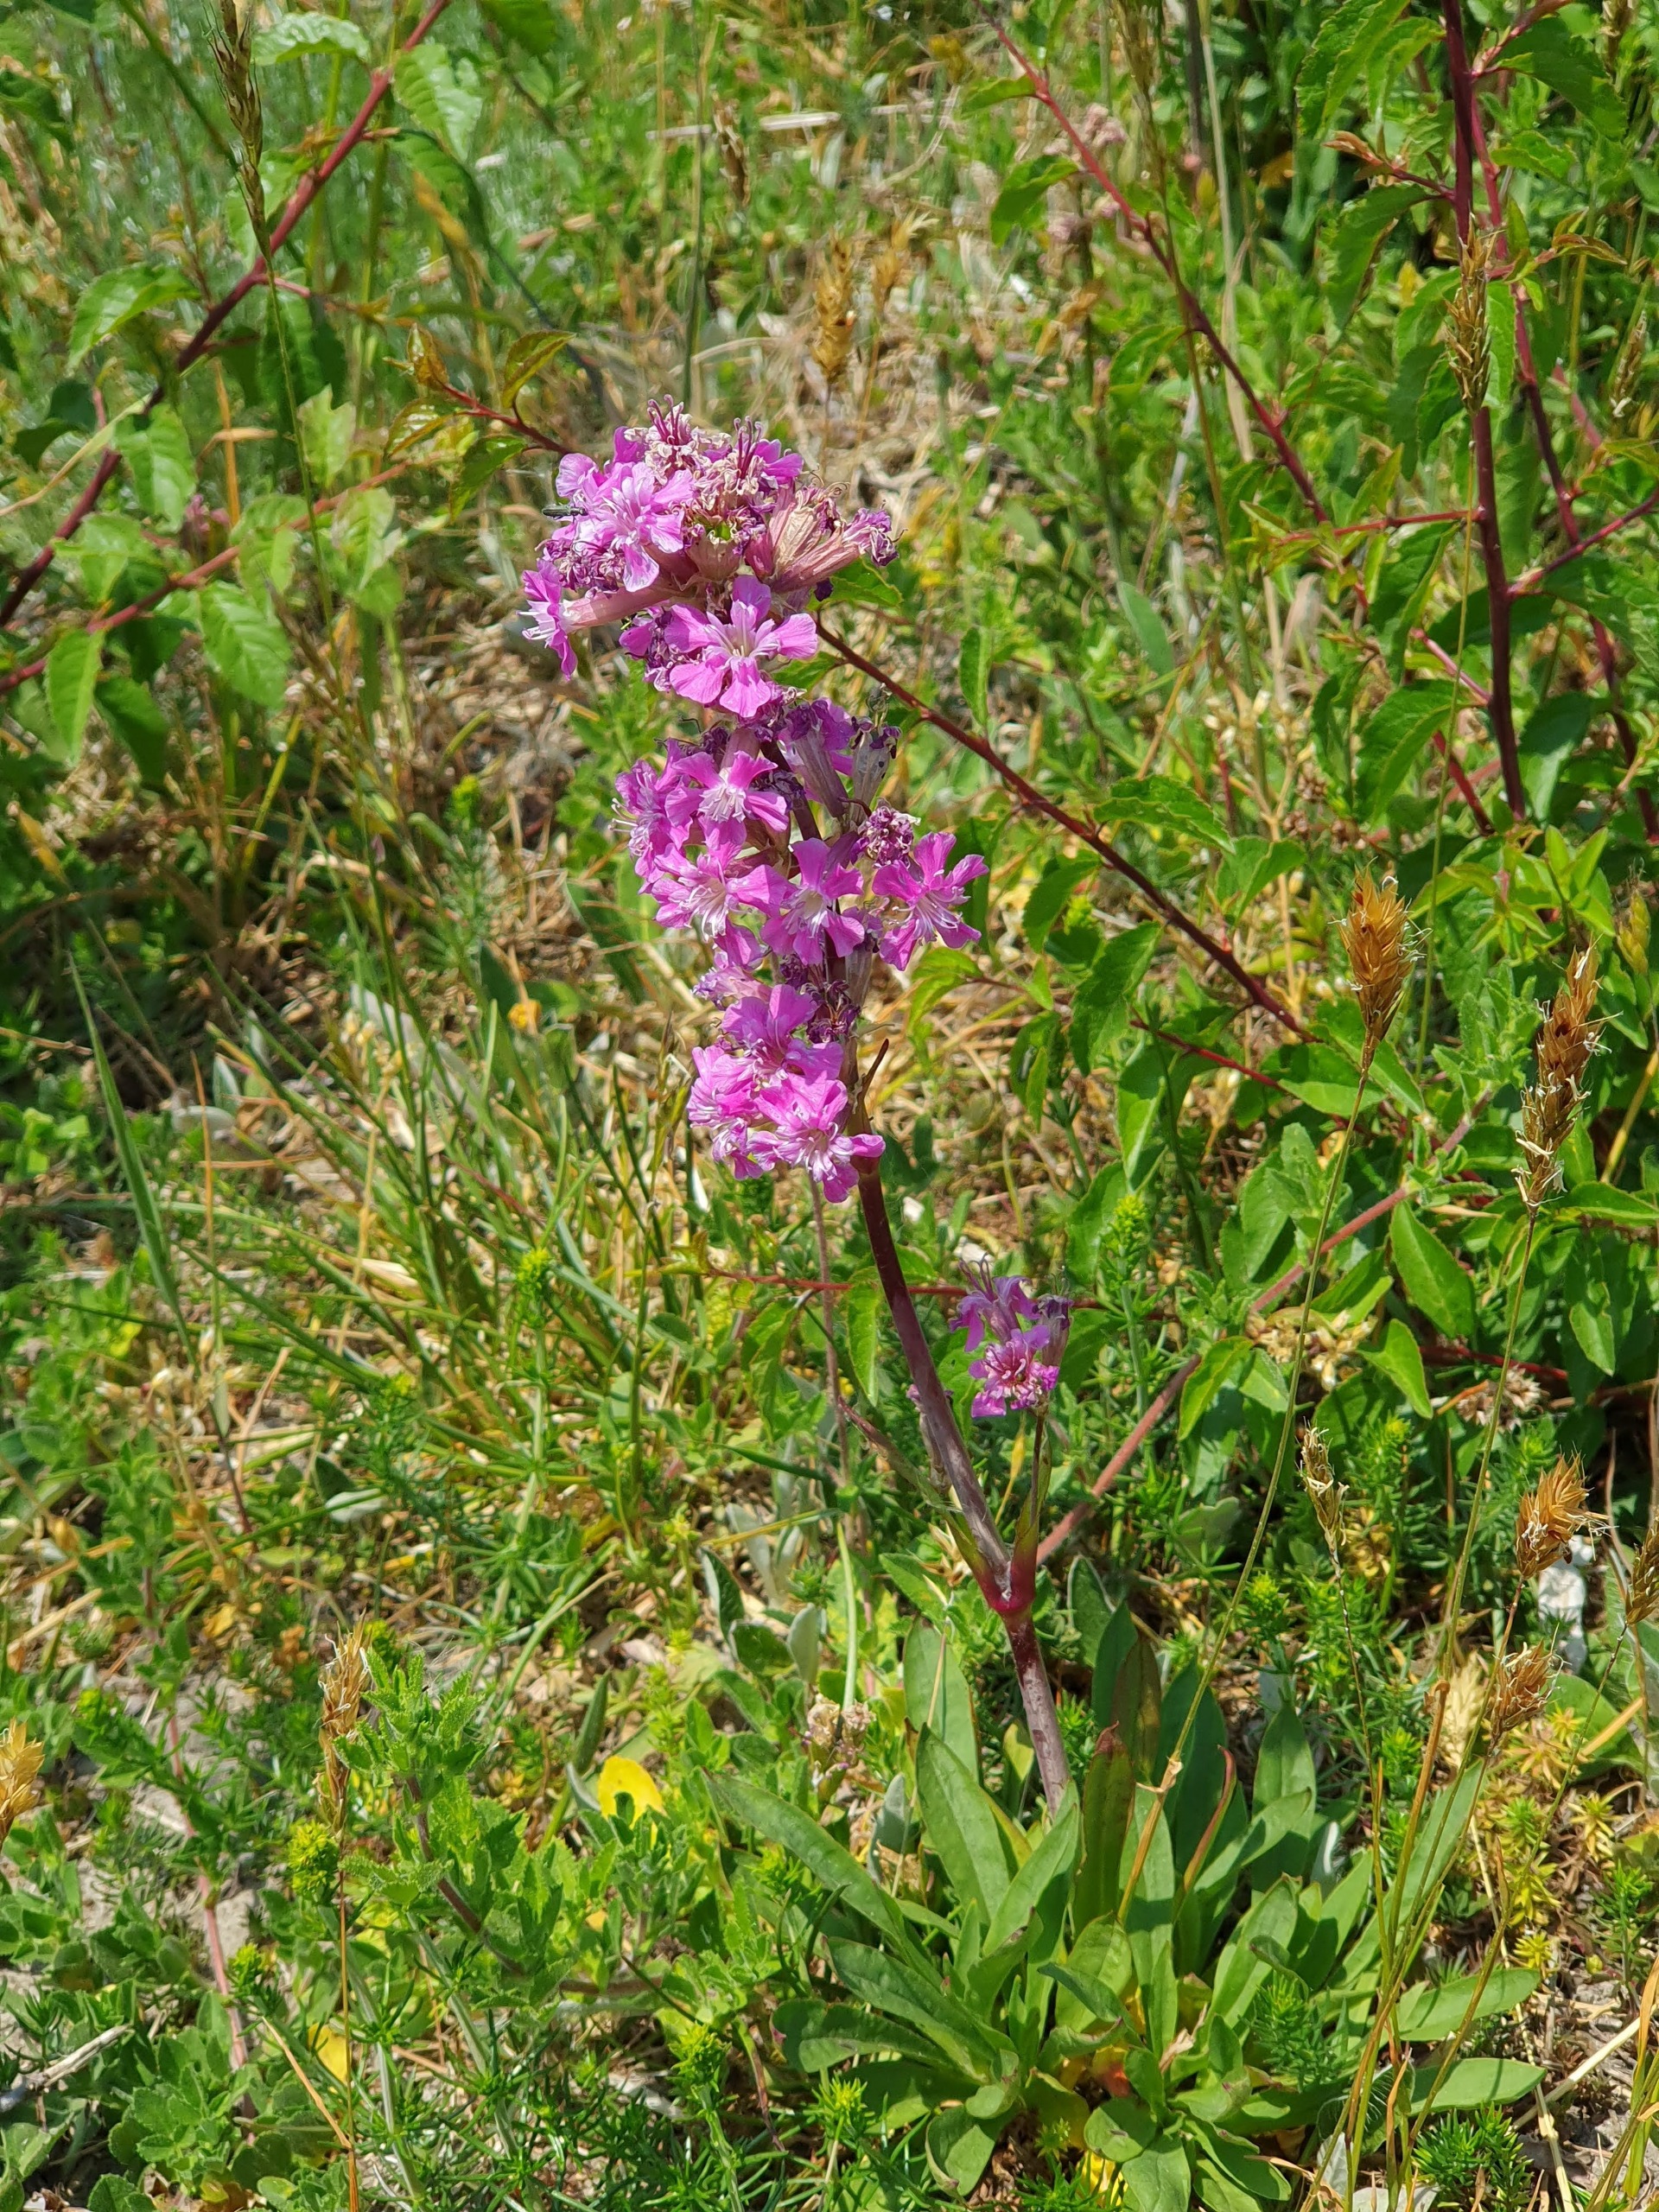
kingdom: Plantae
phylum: Tracheophyta
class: Magnoliopsida
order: Caryophyllales
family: Caryophyllaceae
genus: Viscaria
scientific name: Viscaria vulgaris
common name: Tjærenellike
